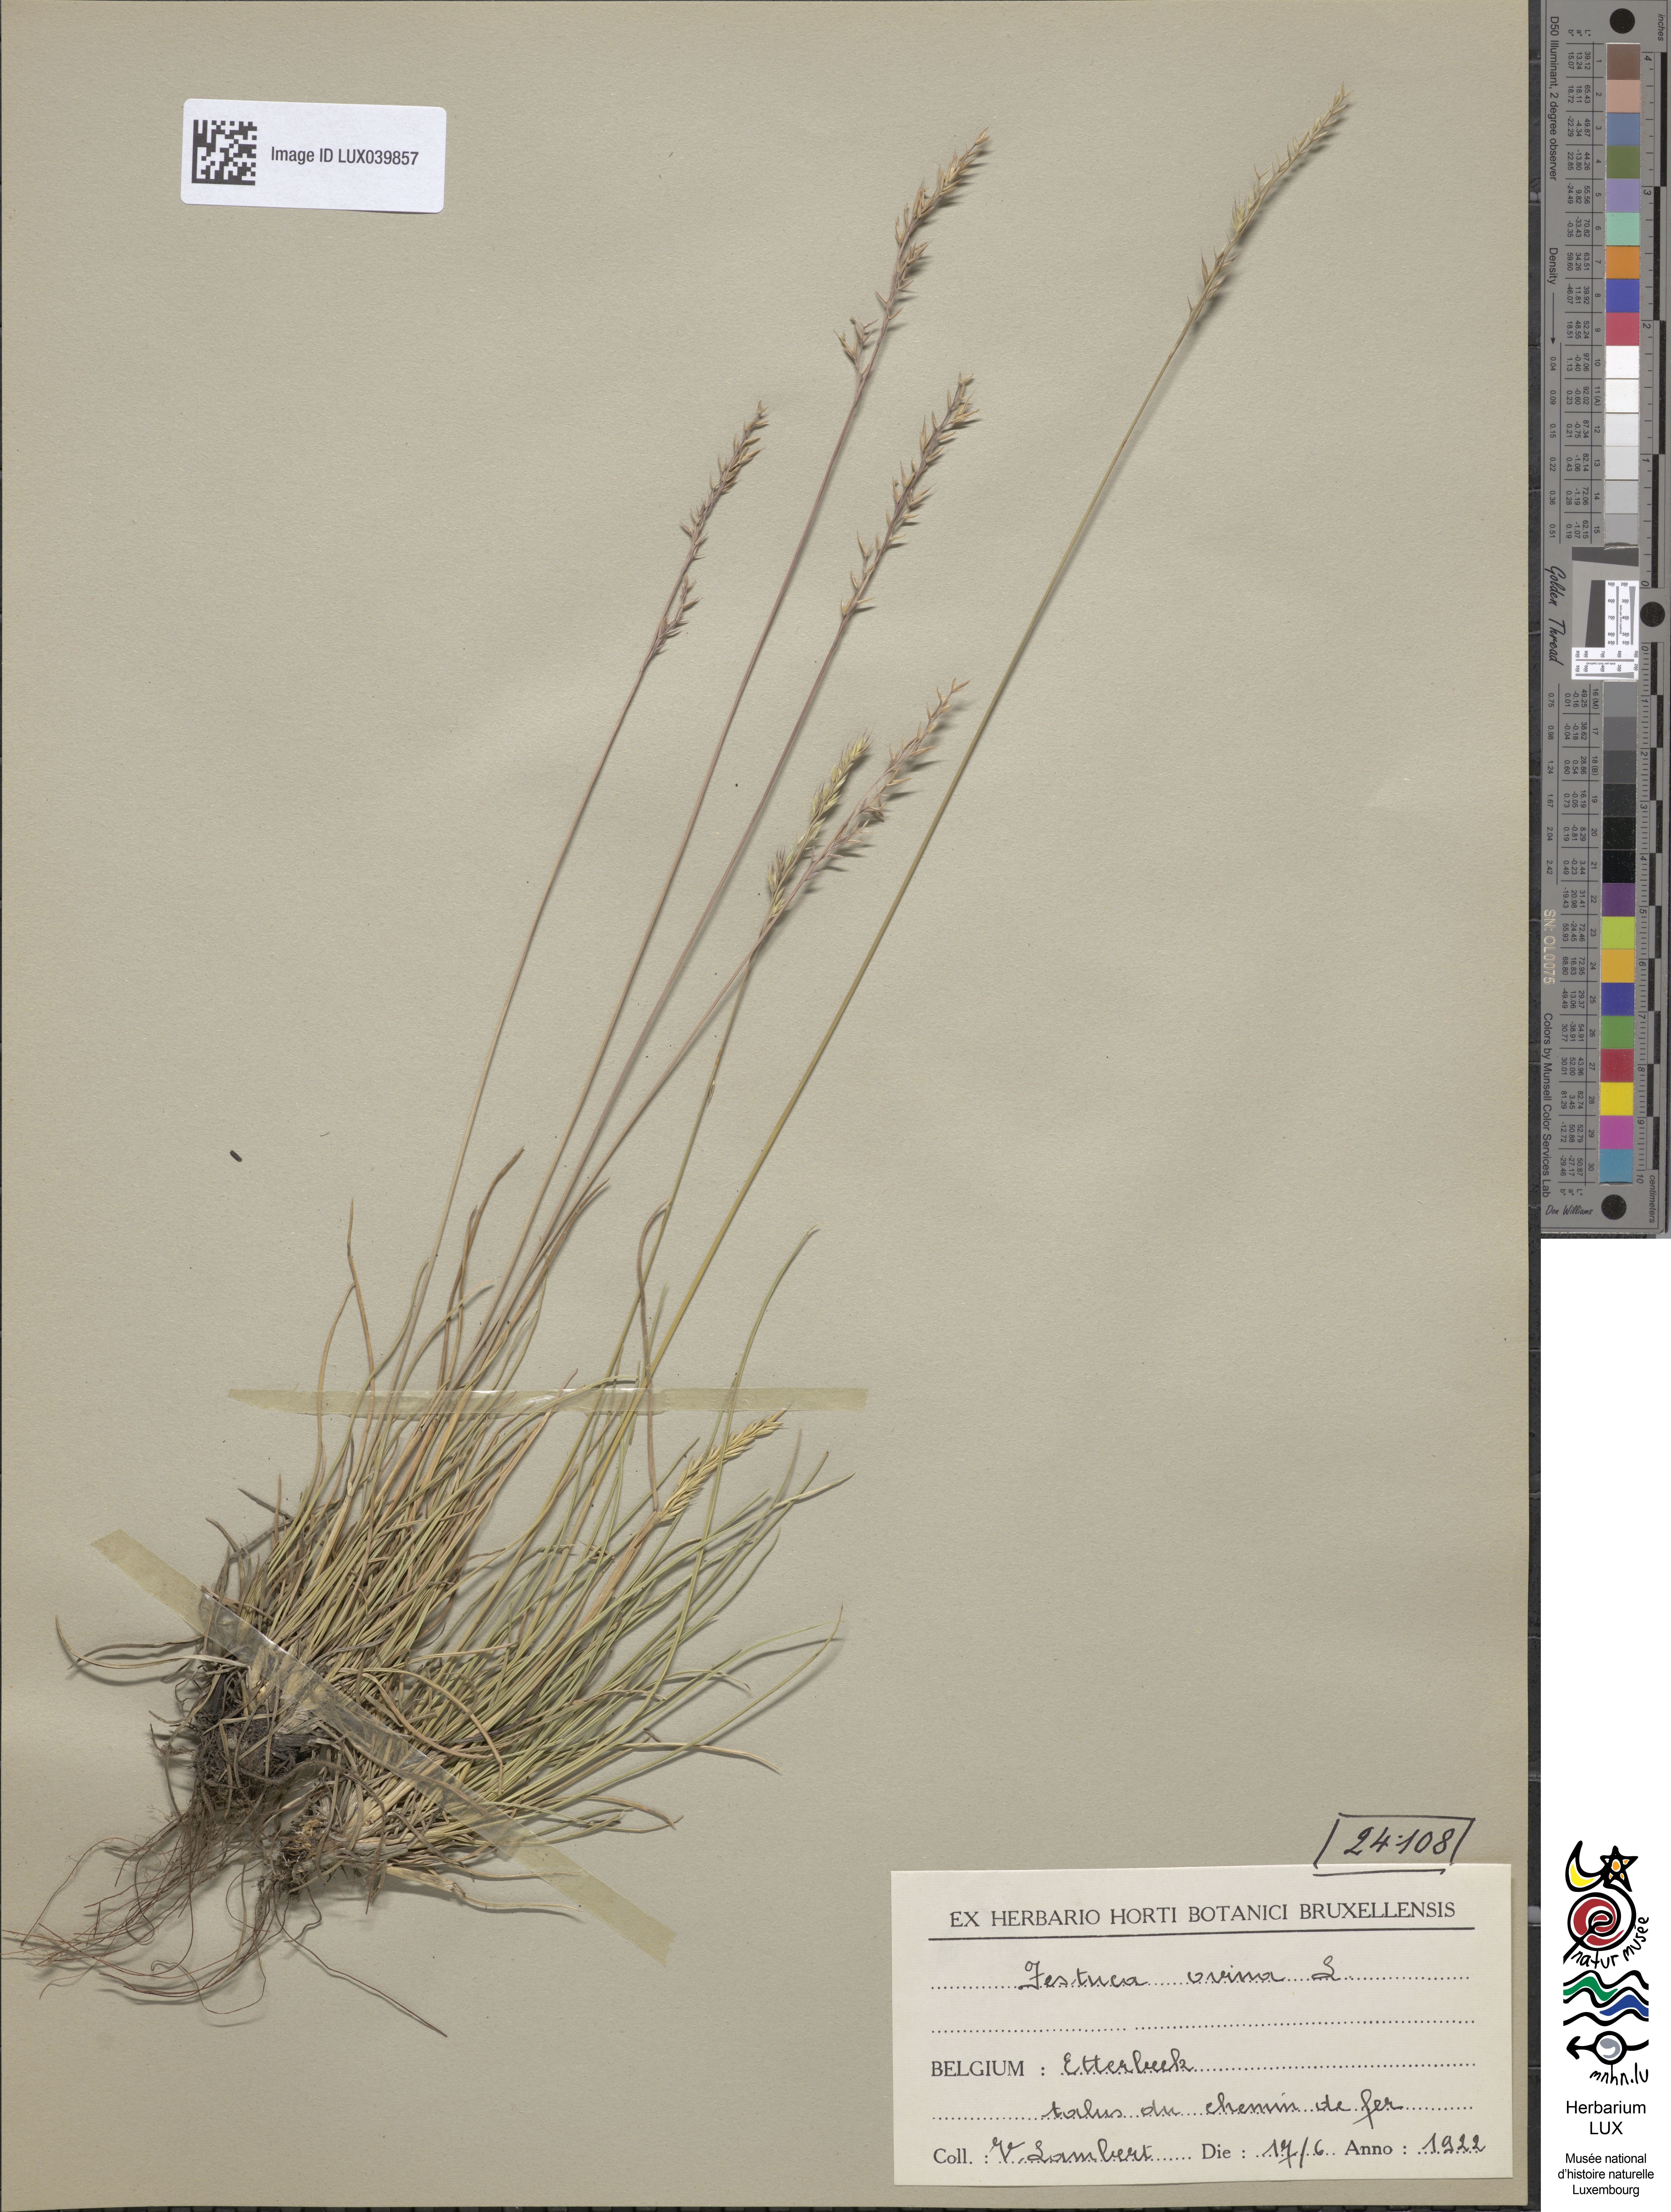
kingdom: Plantae
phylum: Tracheophyta
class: Liliopsida
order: Poales
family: Poaceae
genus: Festuca
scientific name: Festuca ovina
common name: Sheep fescue
